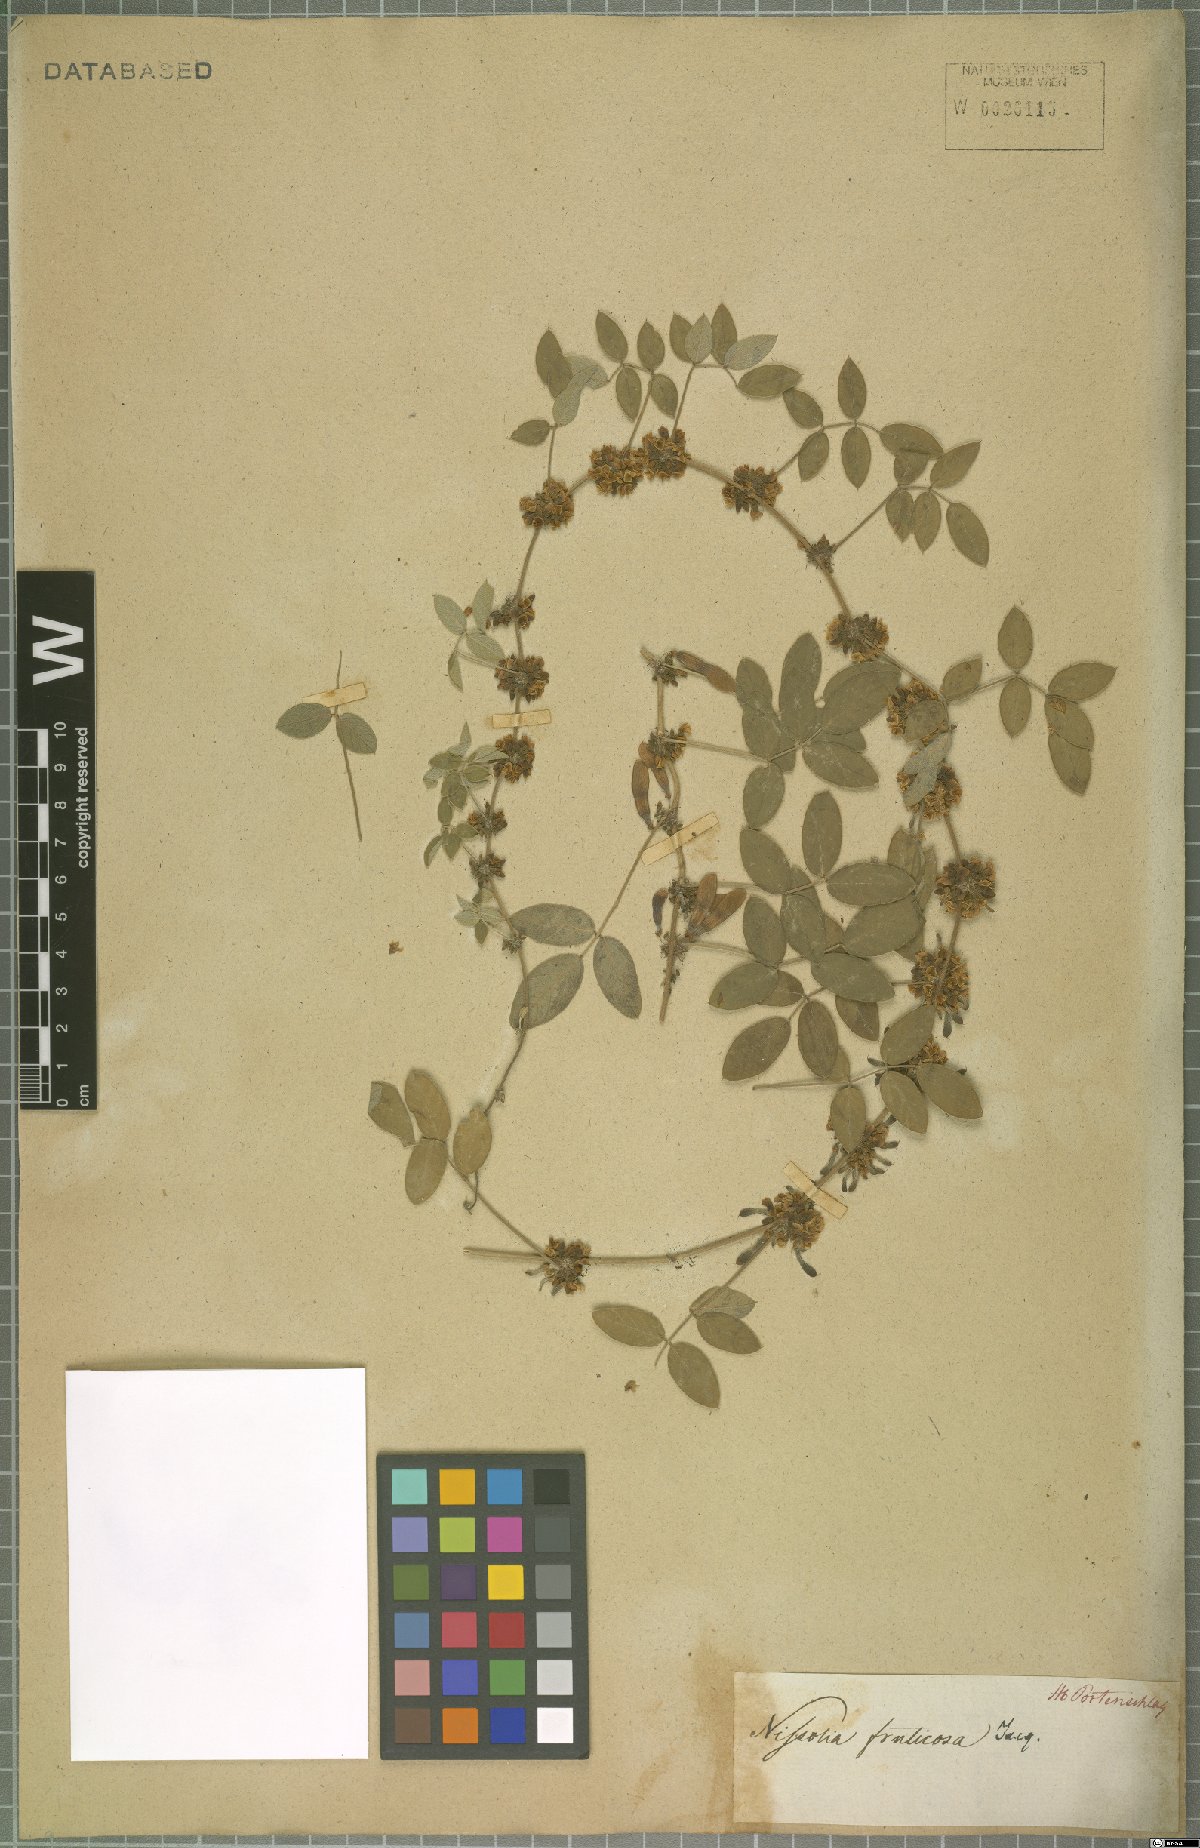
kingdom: Plantae
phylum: Tracheophyta
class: Magnoliopsida
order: Fabales
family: Fabaceae
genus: Nissolia
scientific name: Nissolia fruticosa
